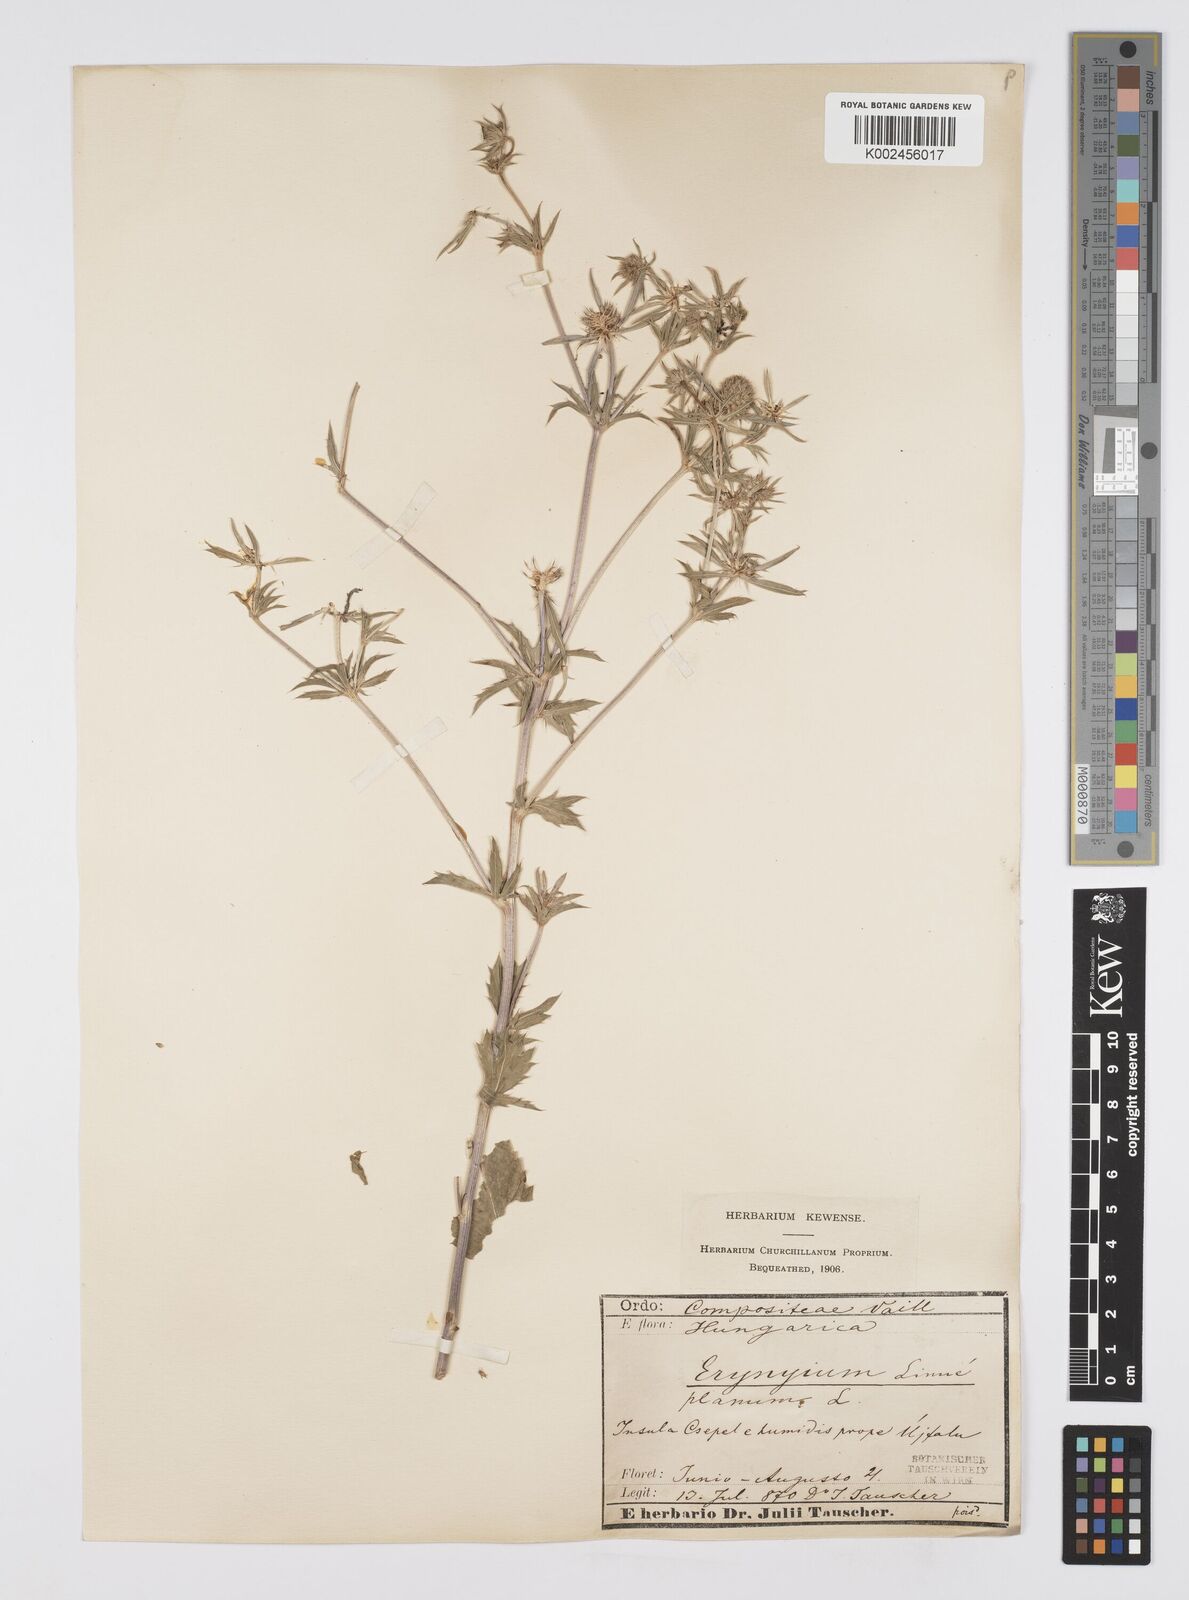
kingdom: Plantae
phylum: Tracheophyta
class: Magnoliopsida
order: Apiales
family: Apiaceae
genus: Eryngium
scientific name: Eryngium planum
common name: Blue eryngo
